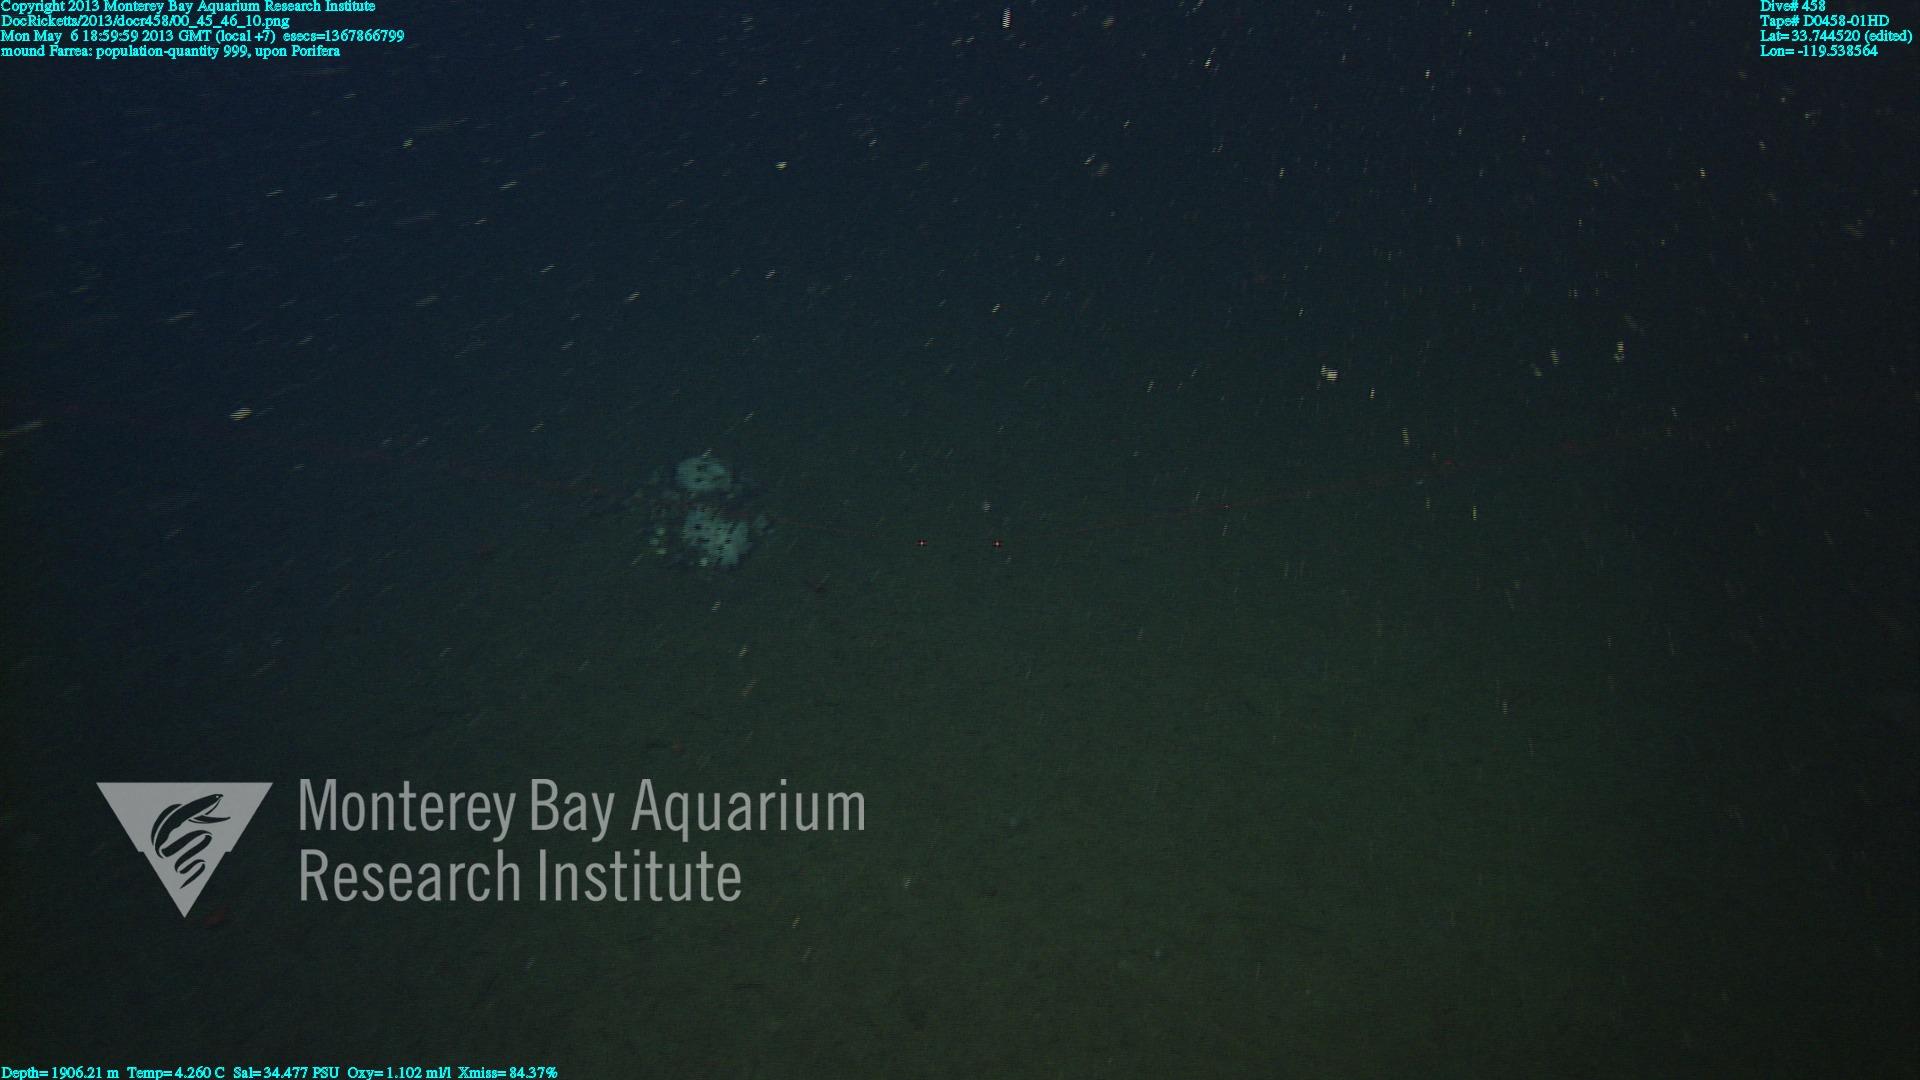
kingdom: Animalia
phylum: Porifera
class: Hexactinellida
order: Sceptrulophora
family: Farreidae
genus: Farrea
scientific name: Farrea
